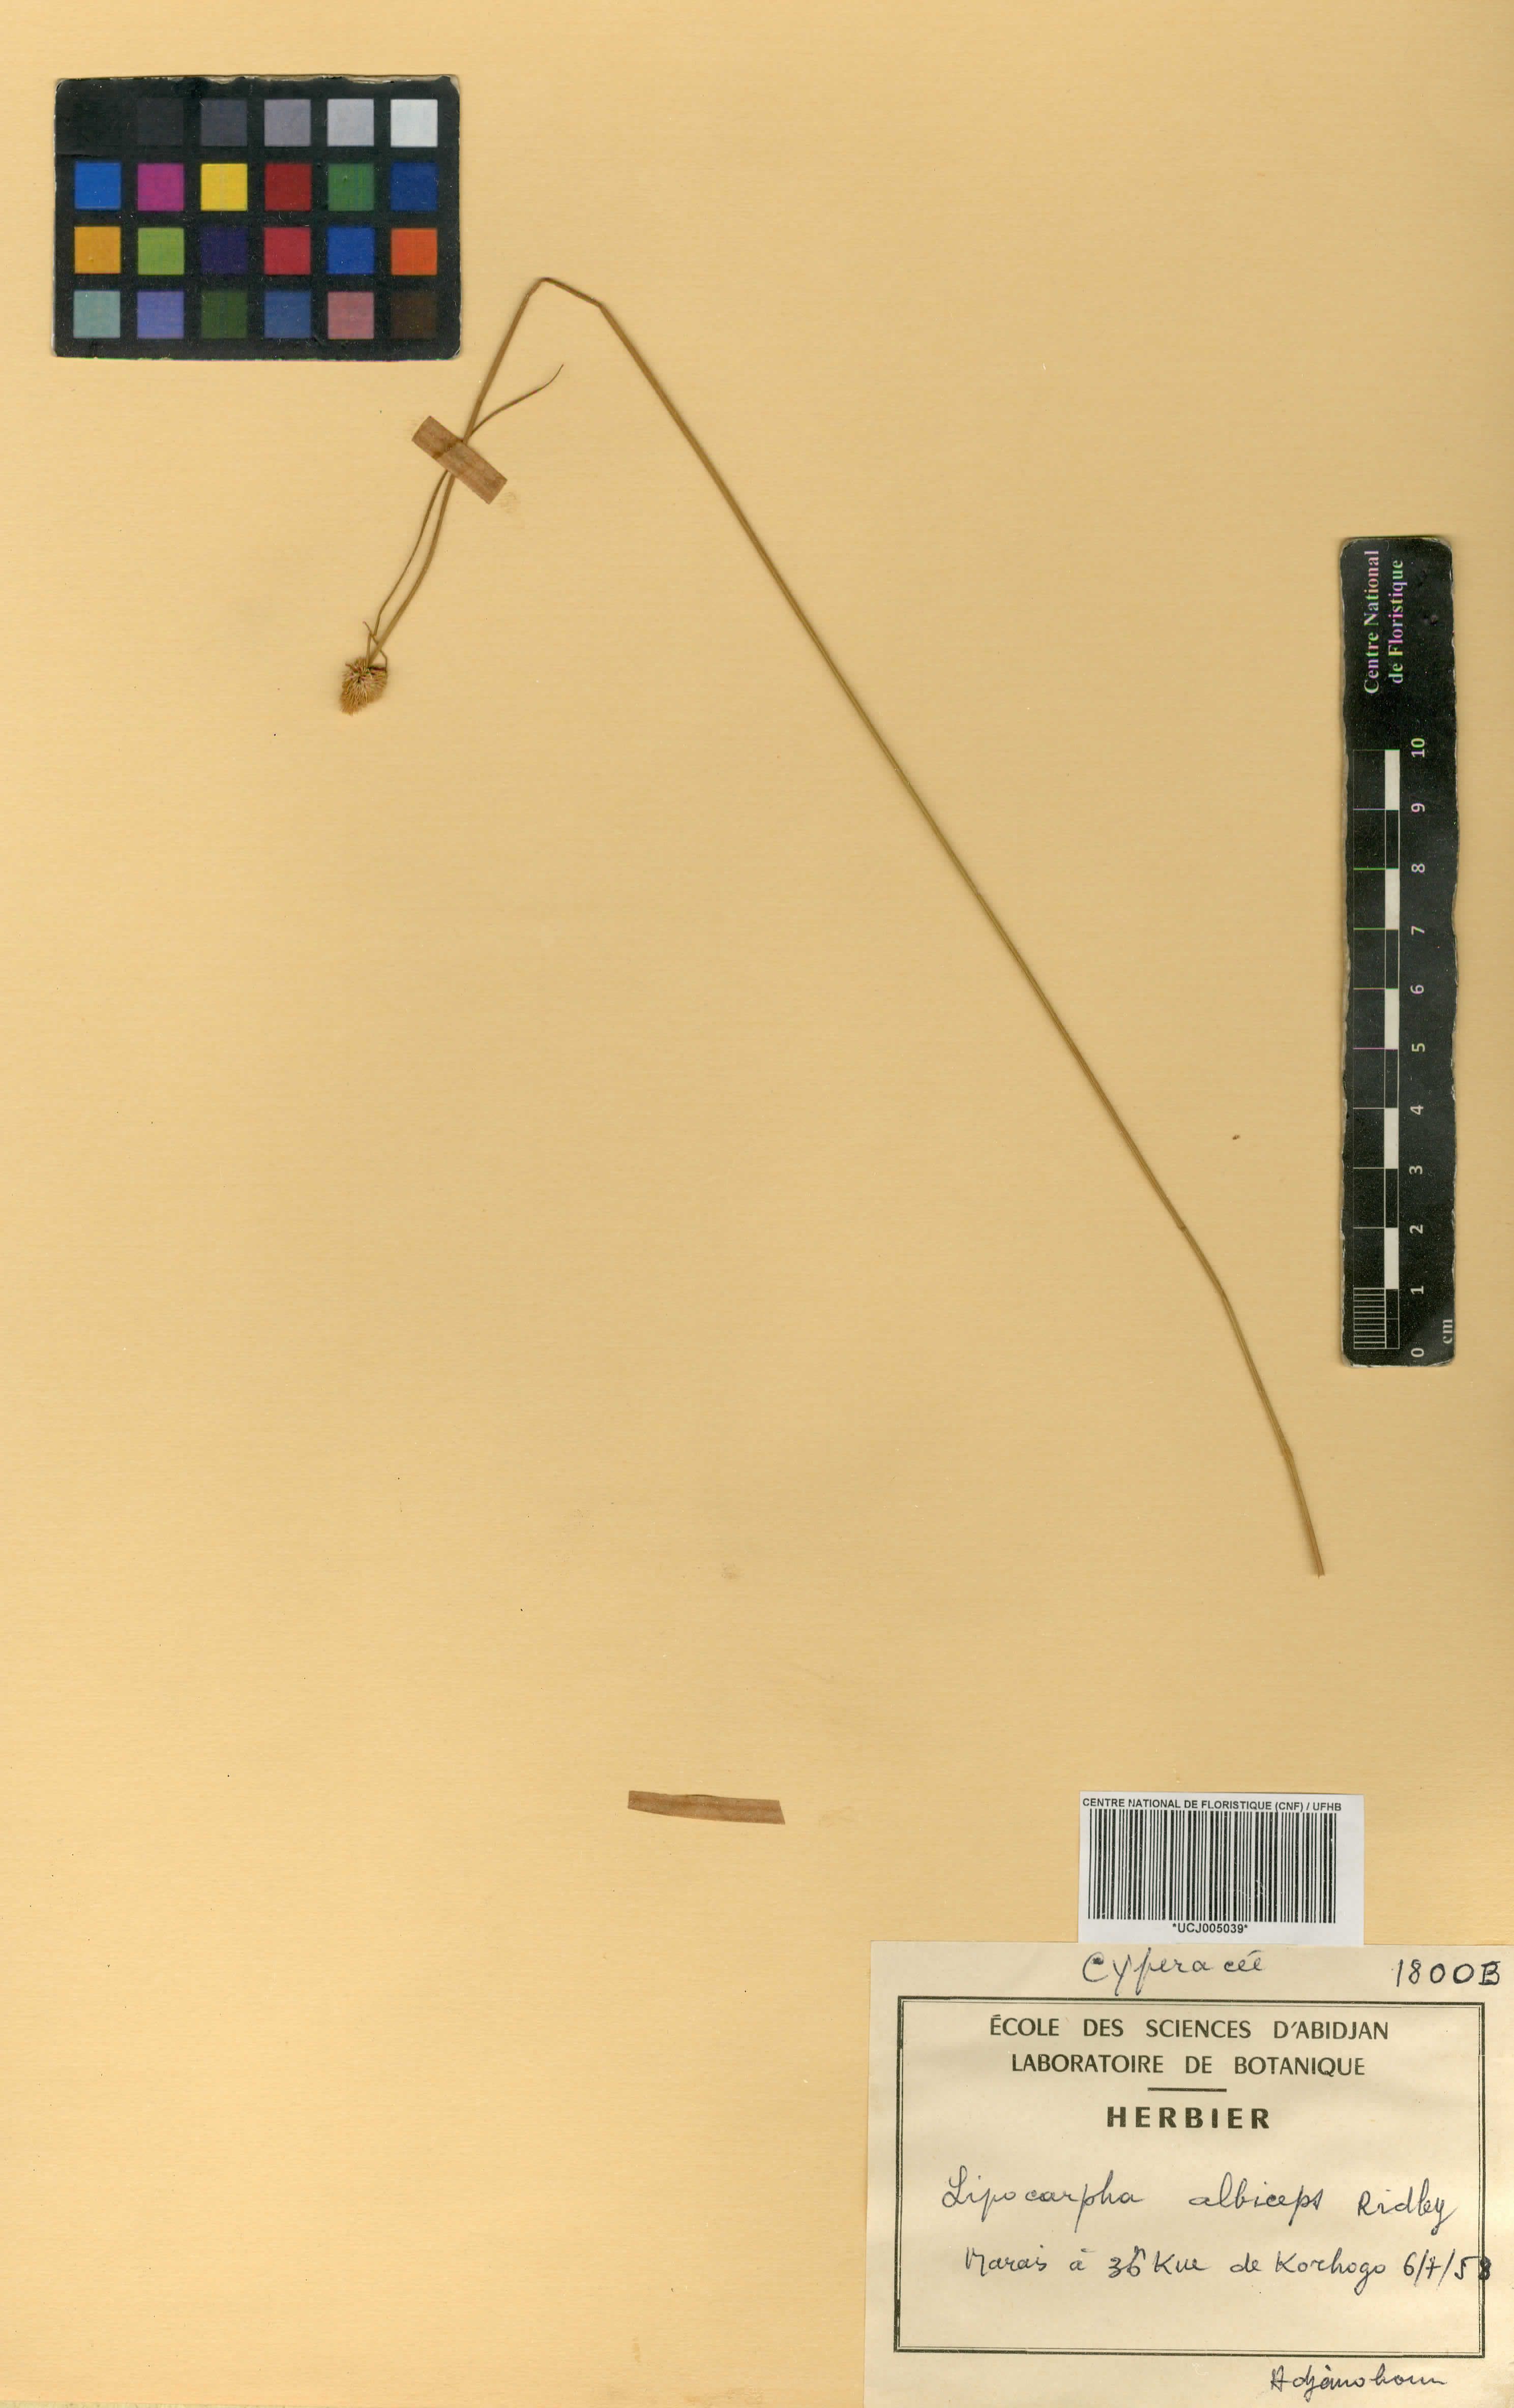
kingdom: Plantae
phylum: Tracheophyta
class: Liliopsida
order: Poales
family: Cyperaceae
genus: Cyperus
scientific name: Cyperus purpureoluteus
